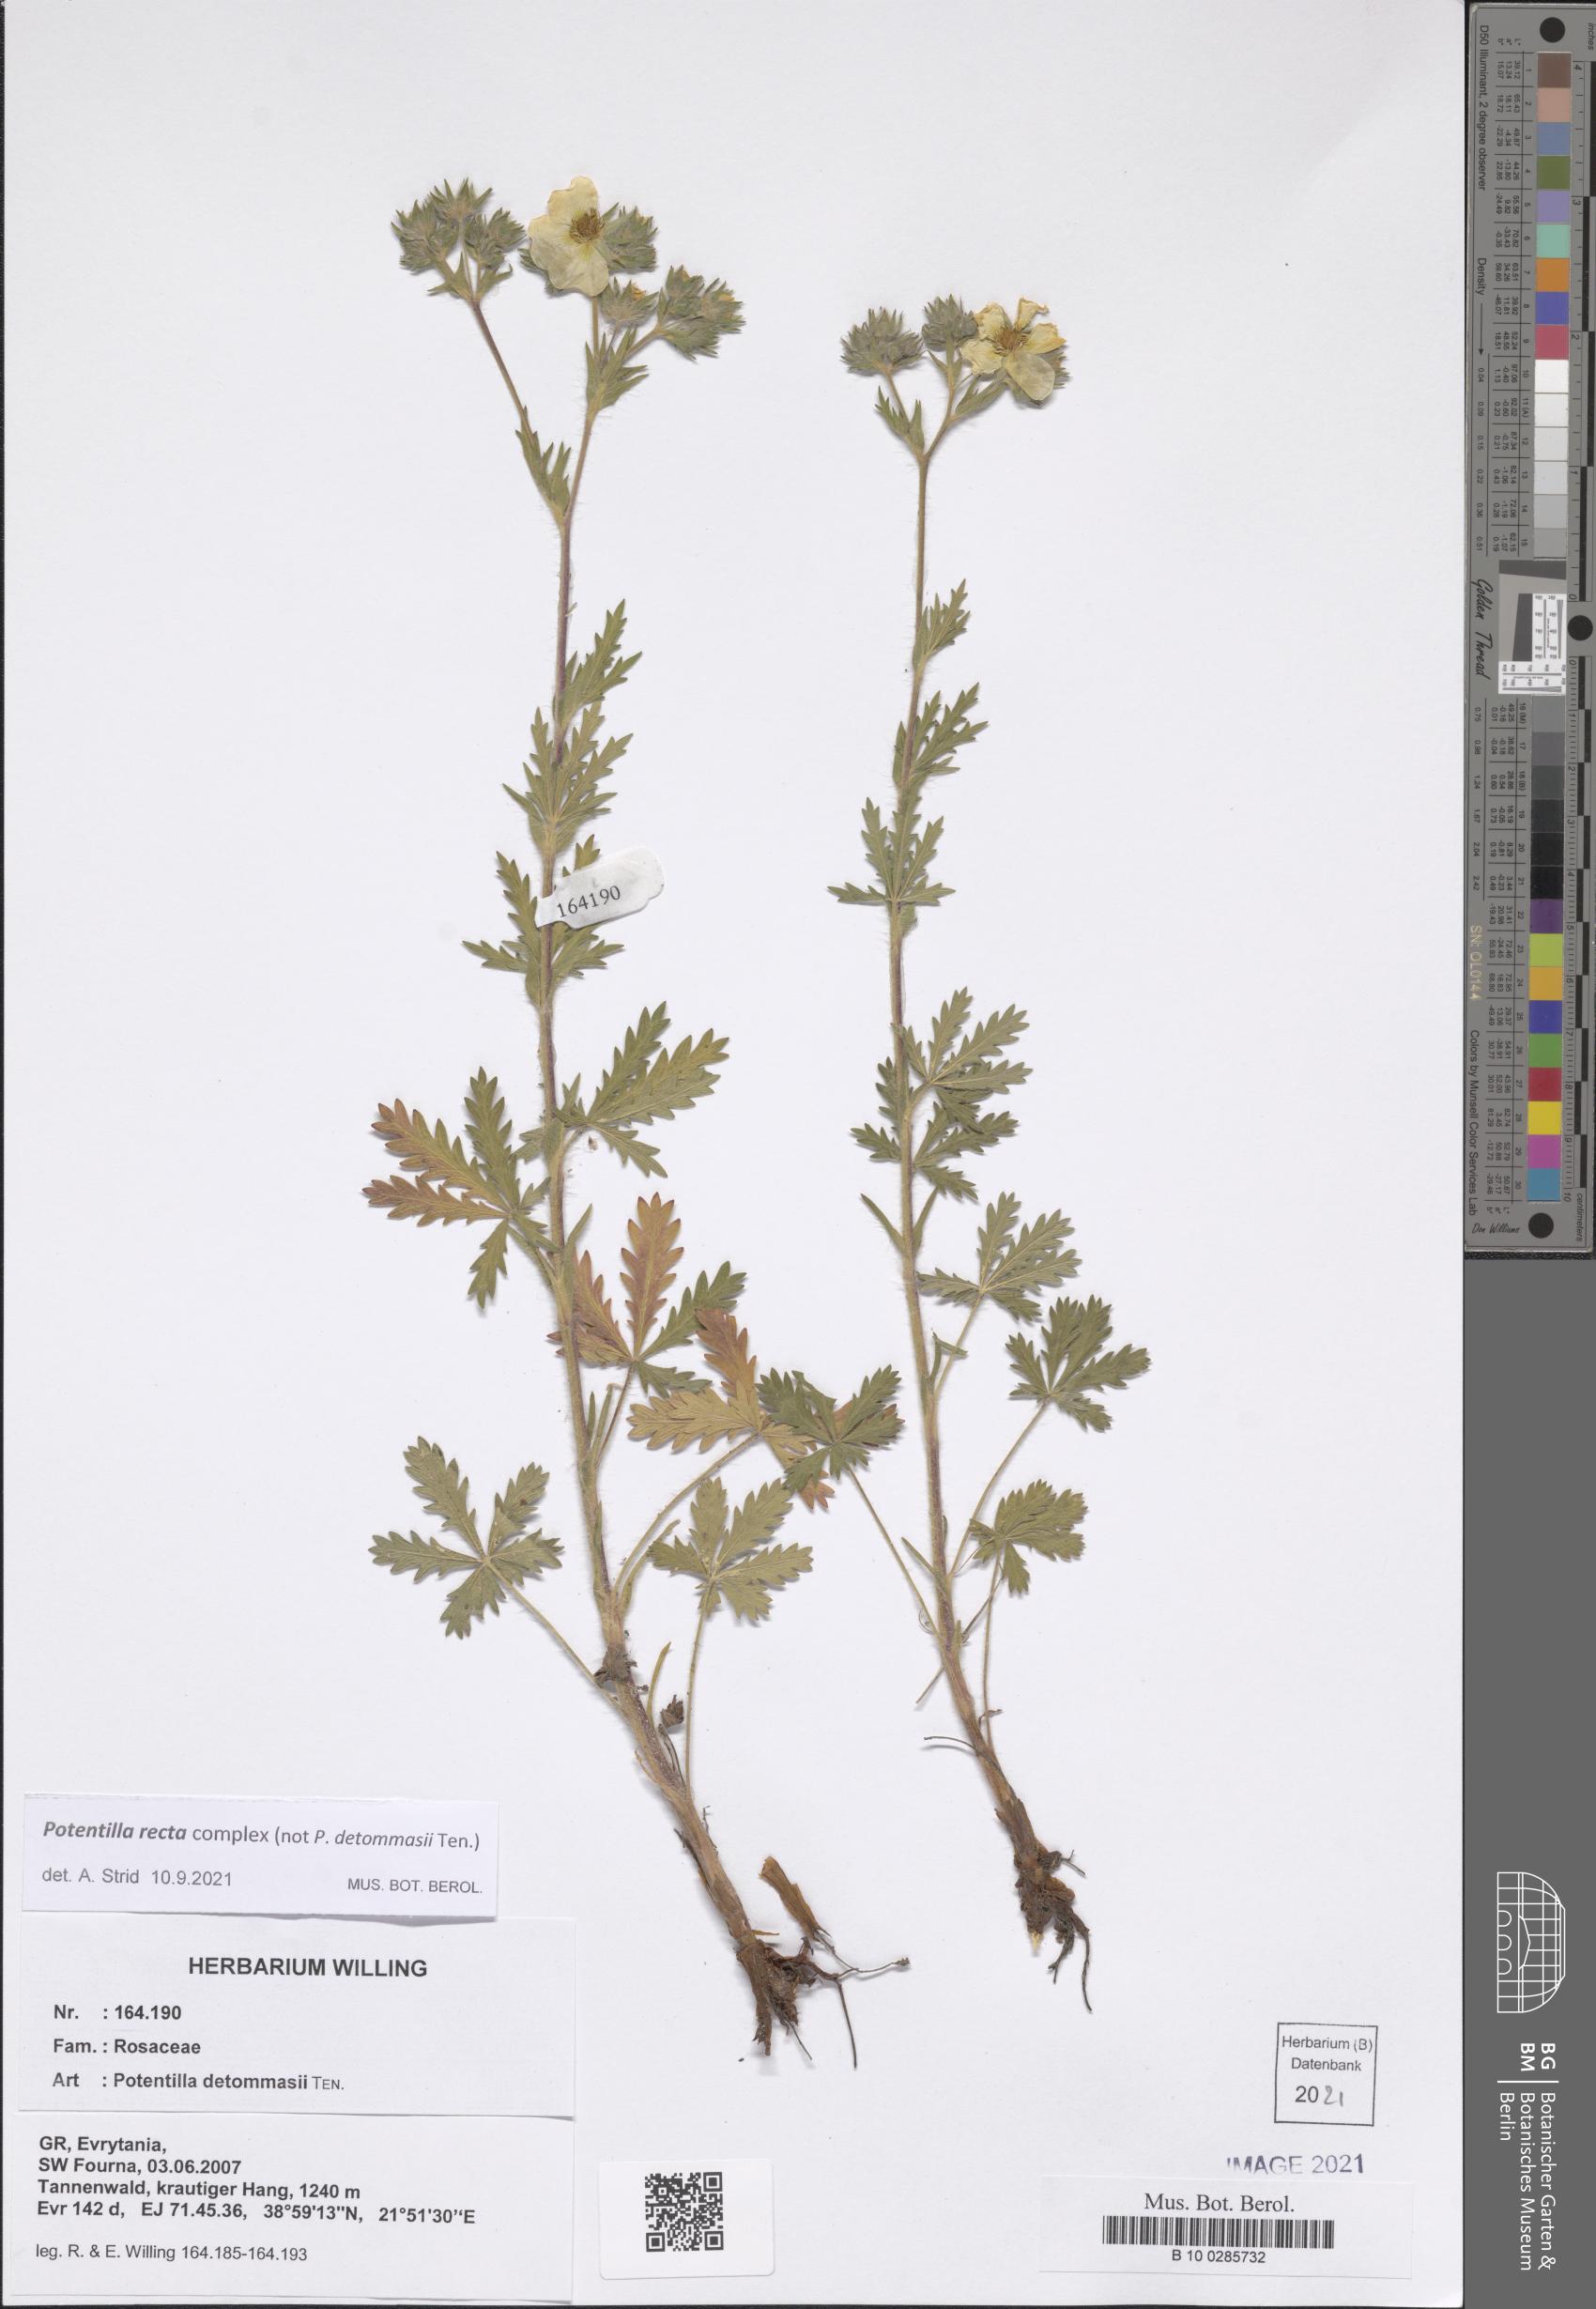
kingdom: Plantae
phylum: Tracheophyta
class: Magnoliopsida
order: Rosales
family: Rosaceae
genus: Potentilla
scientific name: Potentilla recta
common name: Sulphur cinquefoil
